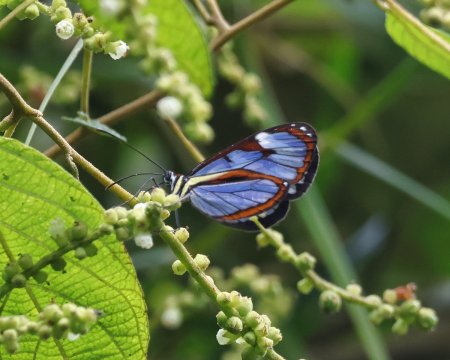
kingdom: Animalia
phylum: Arthropoda
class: Insecta
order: Lepidoptera
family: Nymphalidae
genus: Ithomia
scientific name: Ithomia diasia
